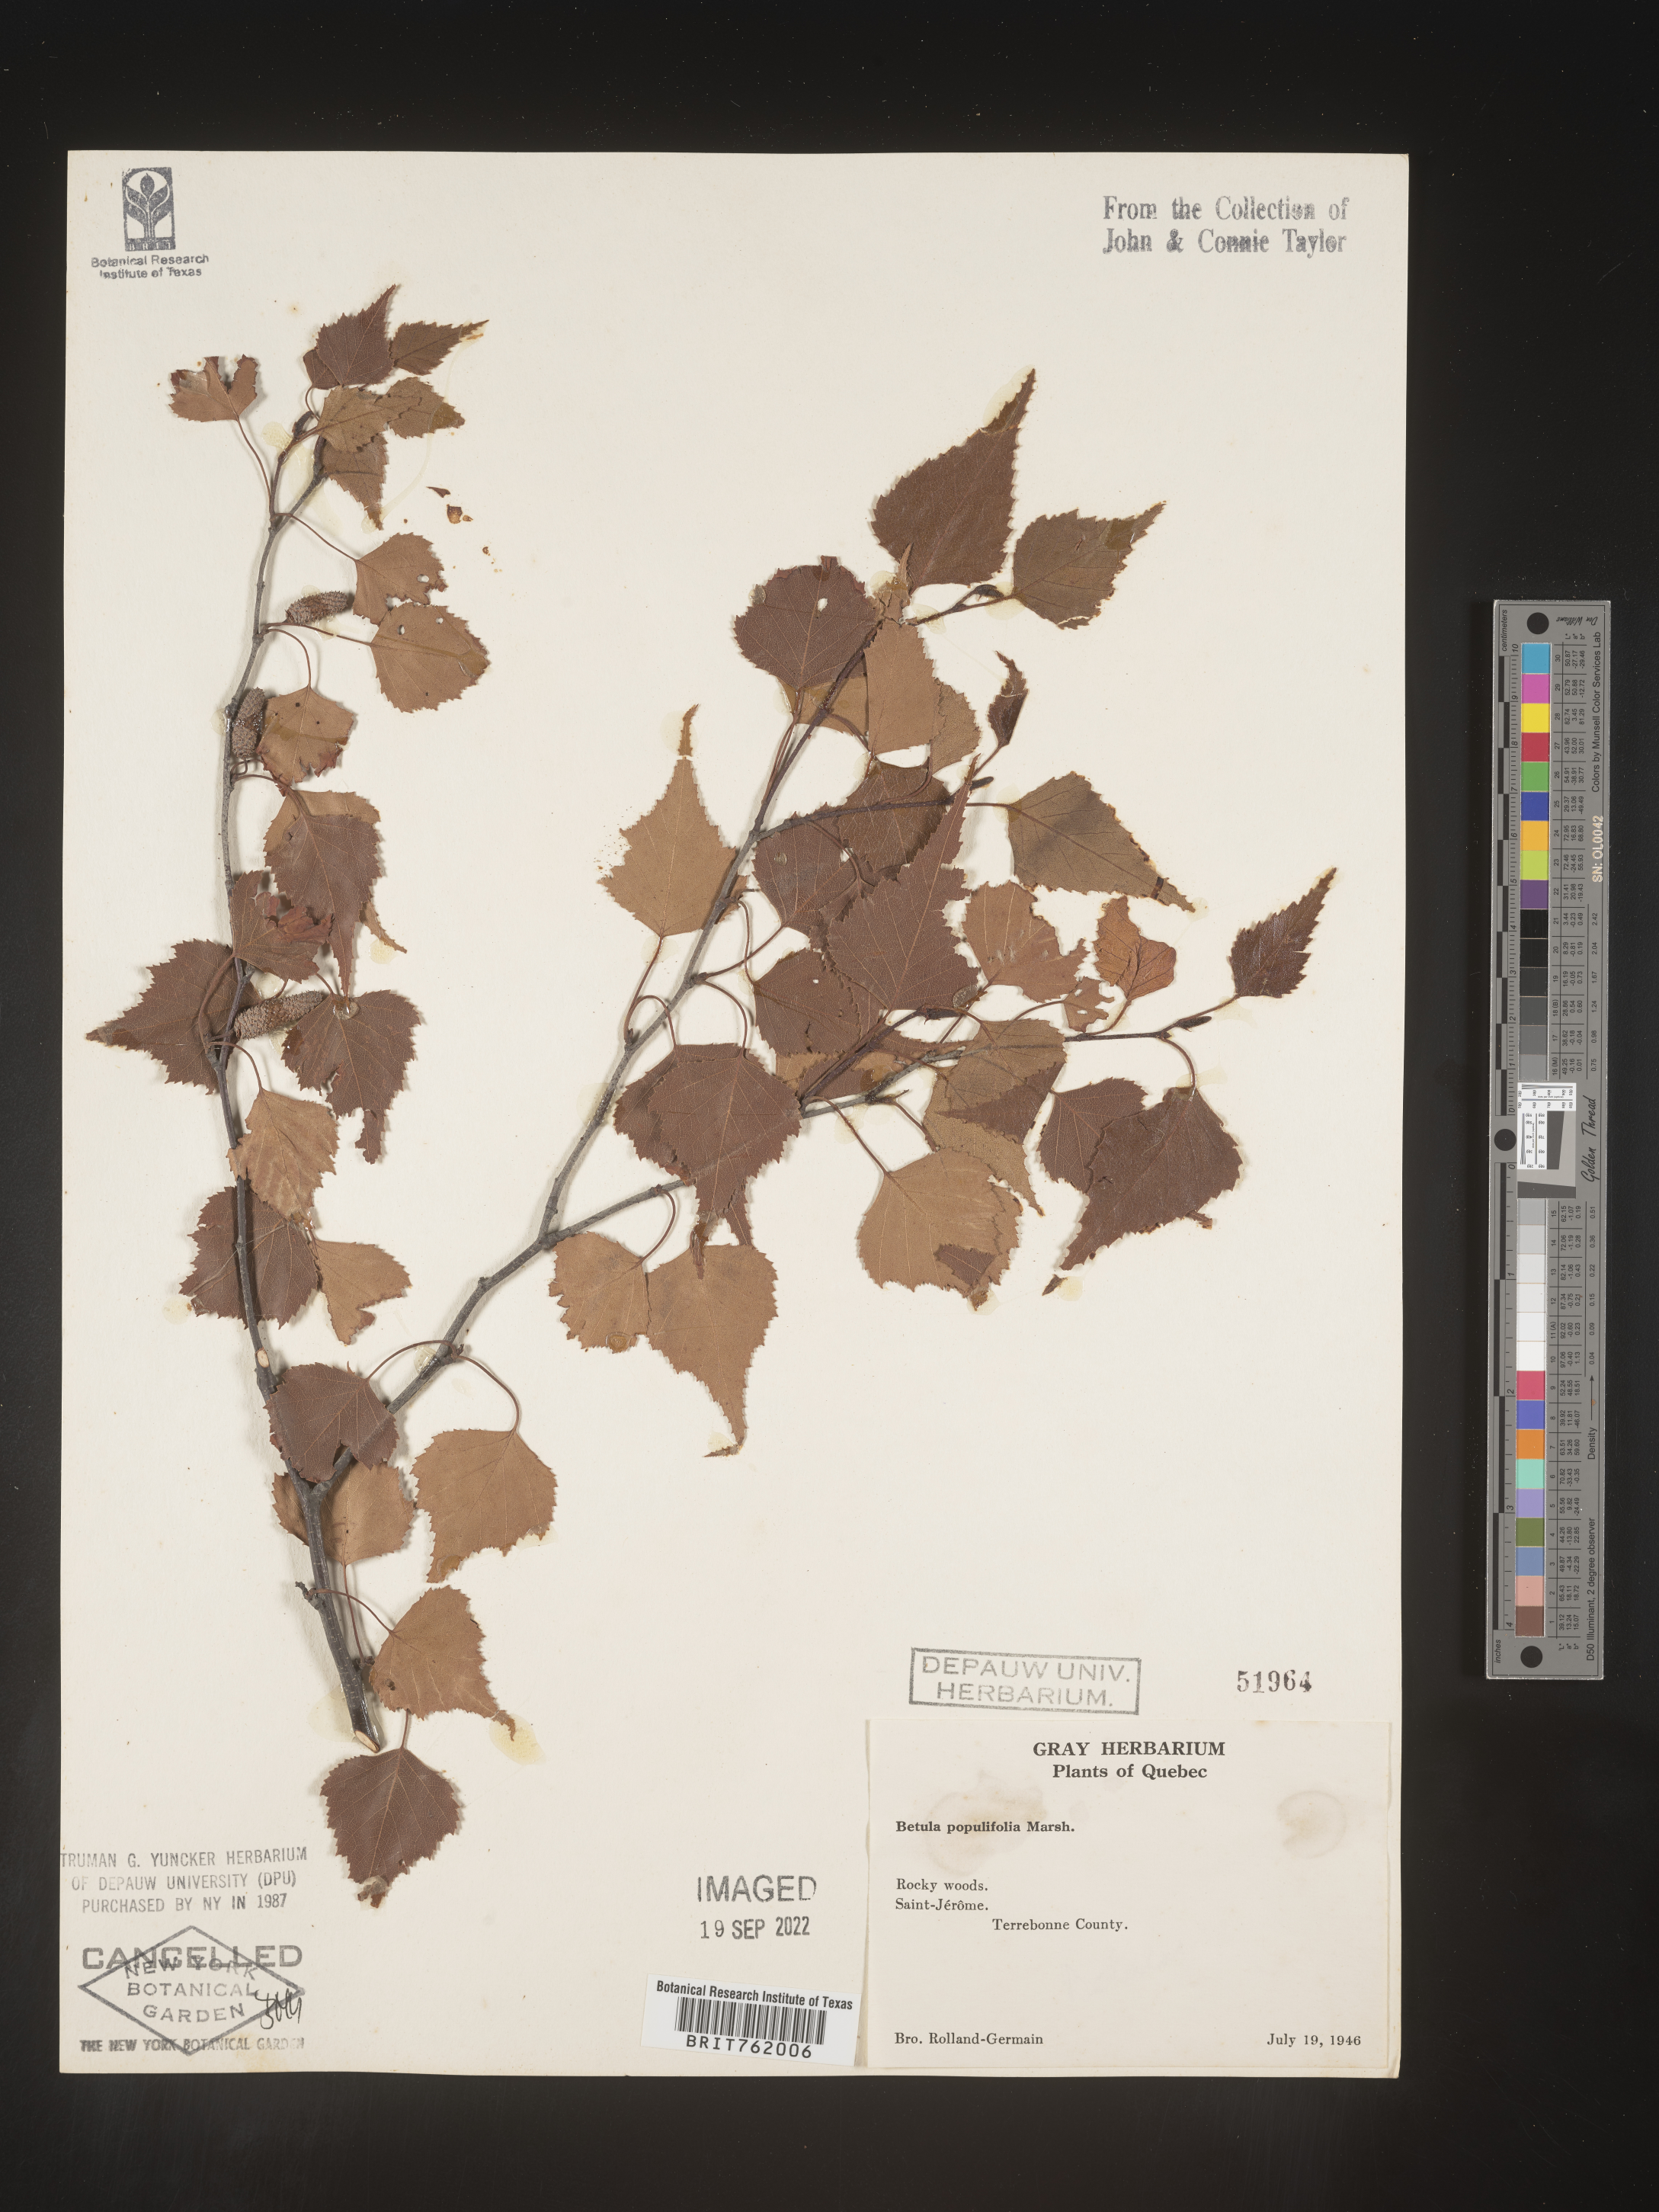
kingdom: Plantae
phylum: Tracheophyta
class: Magnoliopsida
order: Fagales
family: Betulaceae
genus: Betula
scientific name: Betula populifolia
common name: Fire birch
